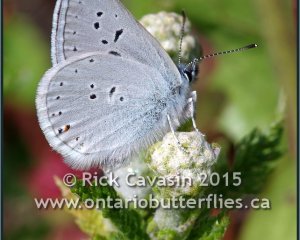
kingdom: Animalia
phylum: Arthropoda
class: Insecta
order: Lepidoptera
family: Lycaenidae
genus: Plebejus
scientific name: Plebejus saepiolus
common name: Greenish Blue
